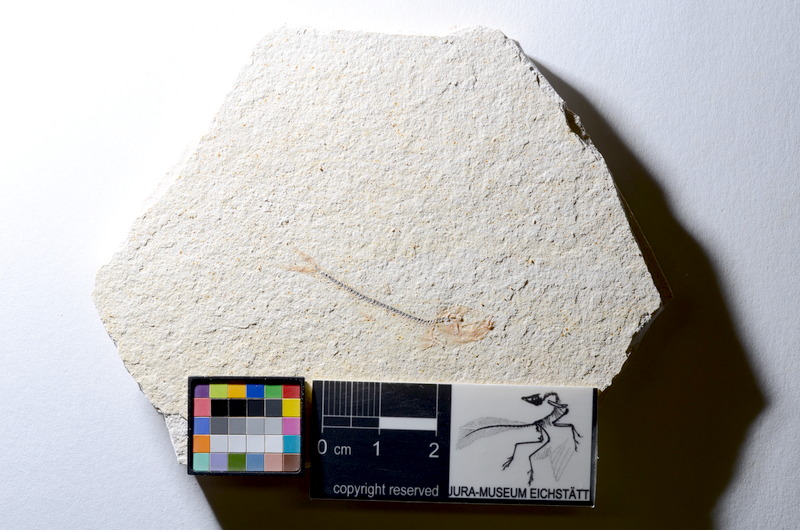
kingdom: Animalia
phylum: Chordata
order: Salmoniformes
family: Orthogonikleithridae
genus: Orthogonikleithrus
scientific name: Orthogonikleithrus hoelli
